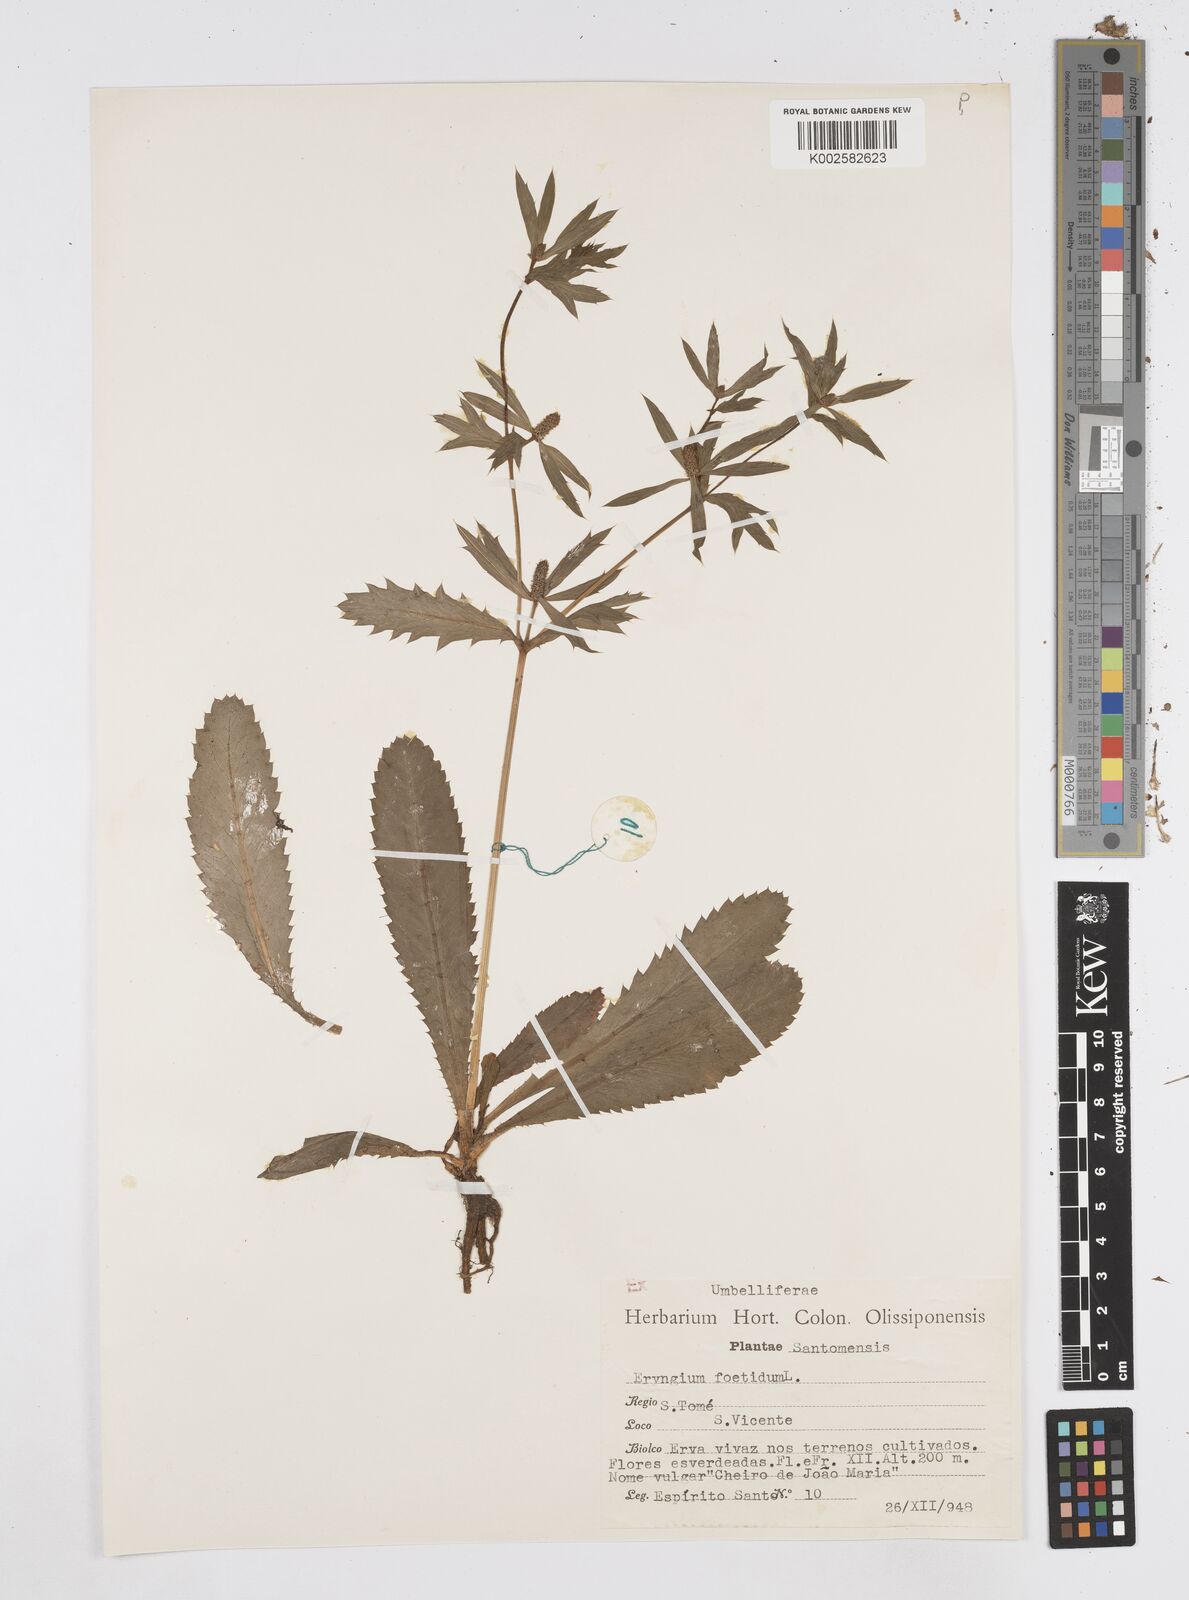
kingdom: Plantae
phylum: Tracheophyta
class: Magnoliopsida
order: Apiales
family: Apiaceae
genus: Eryngium
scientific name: Eryngium foetidum
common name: Fitweed
